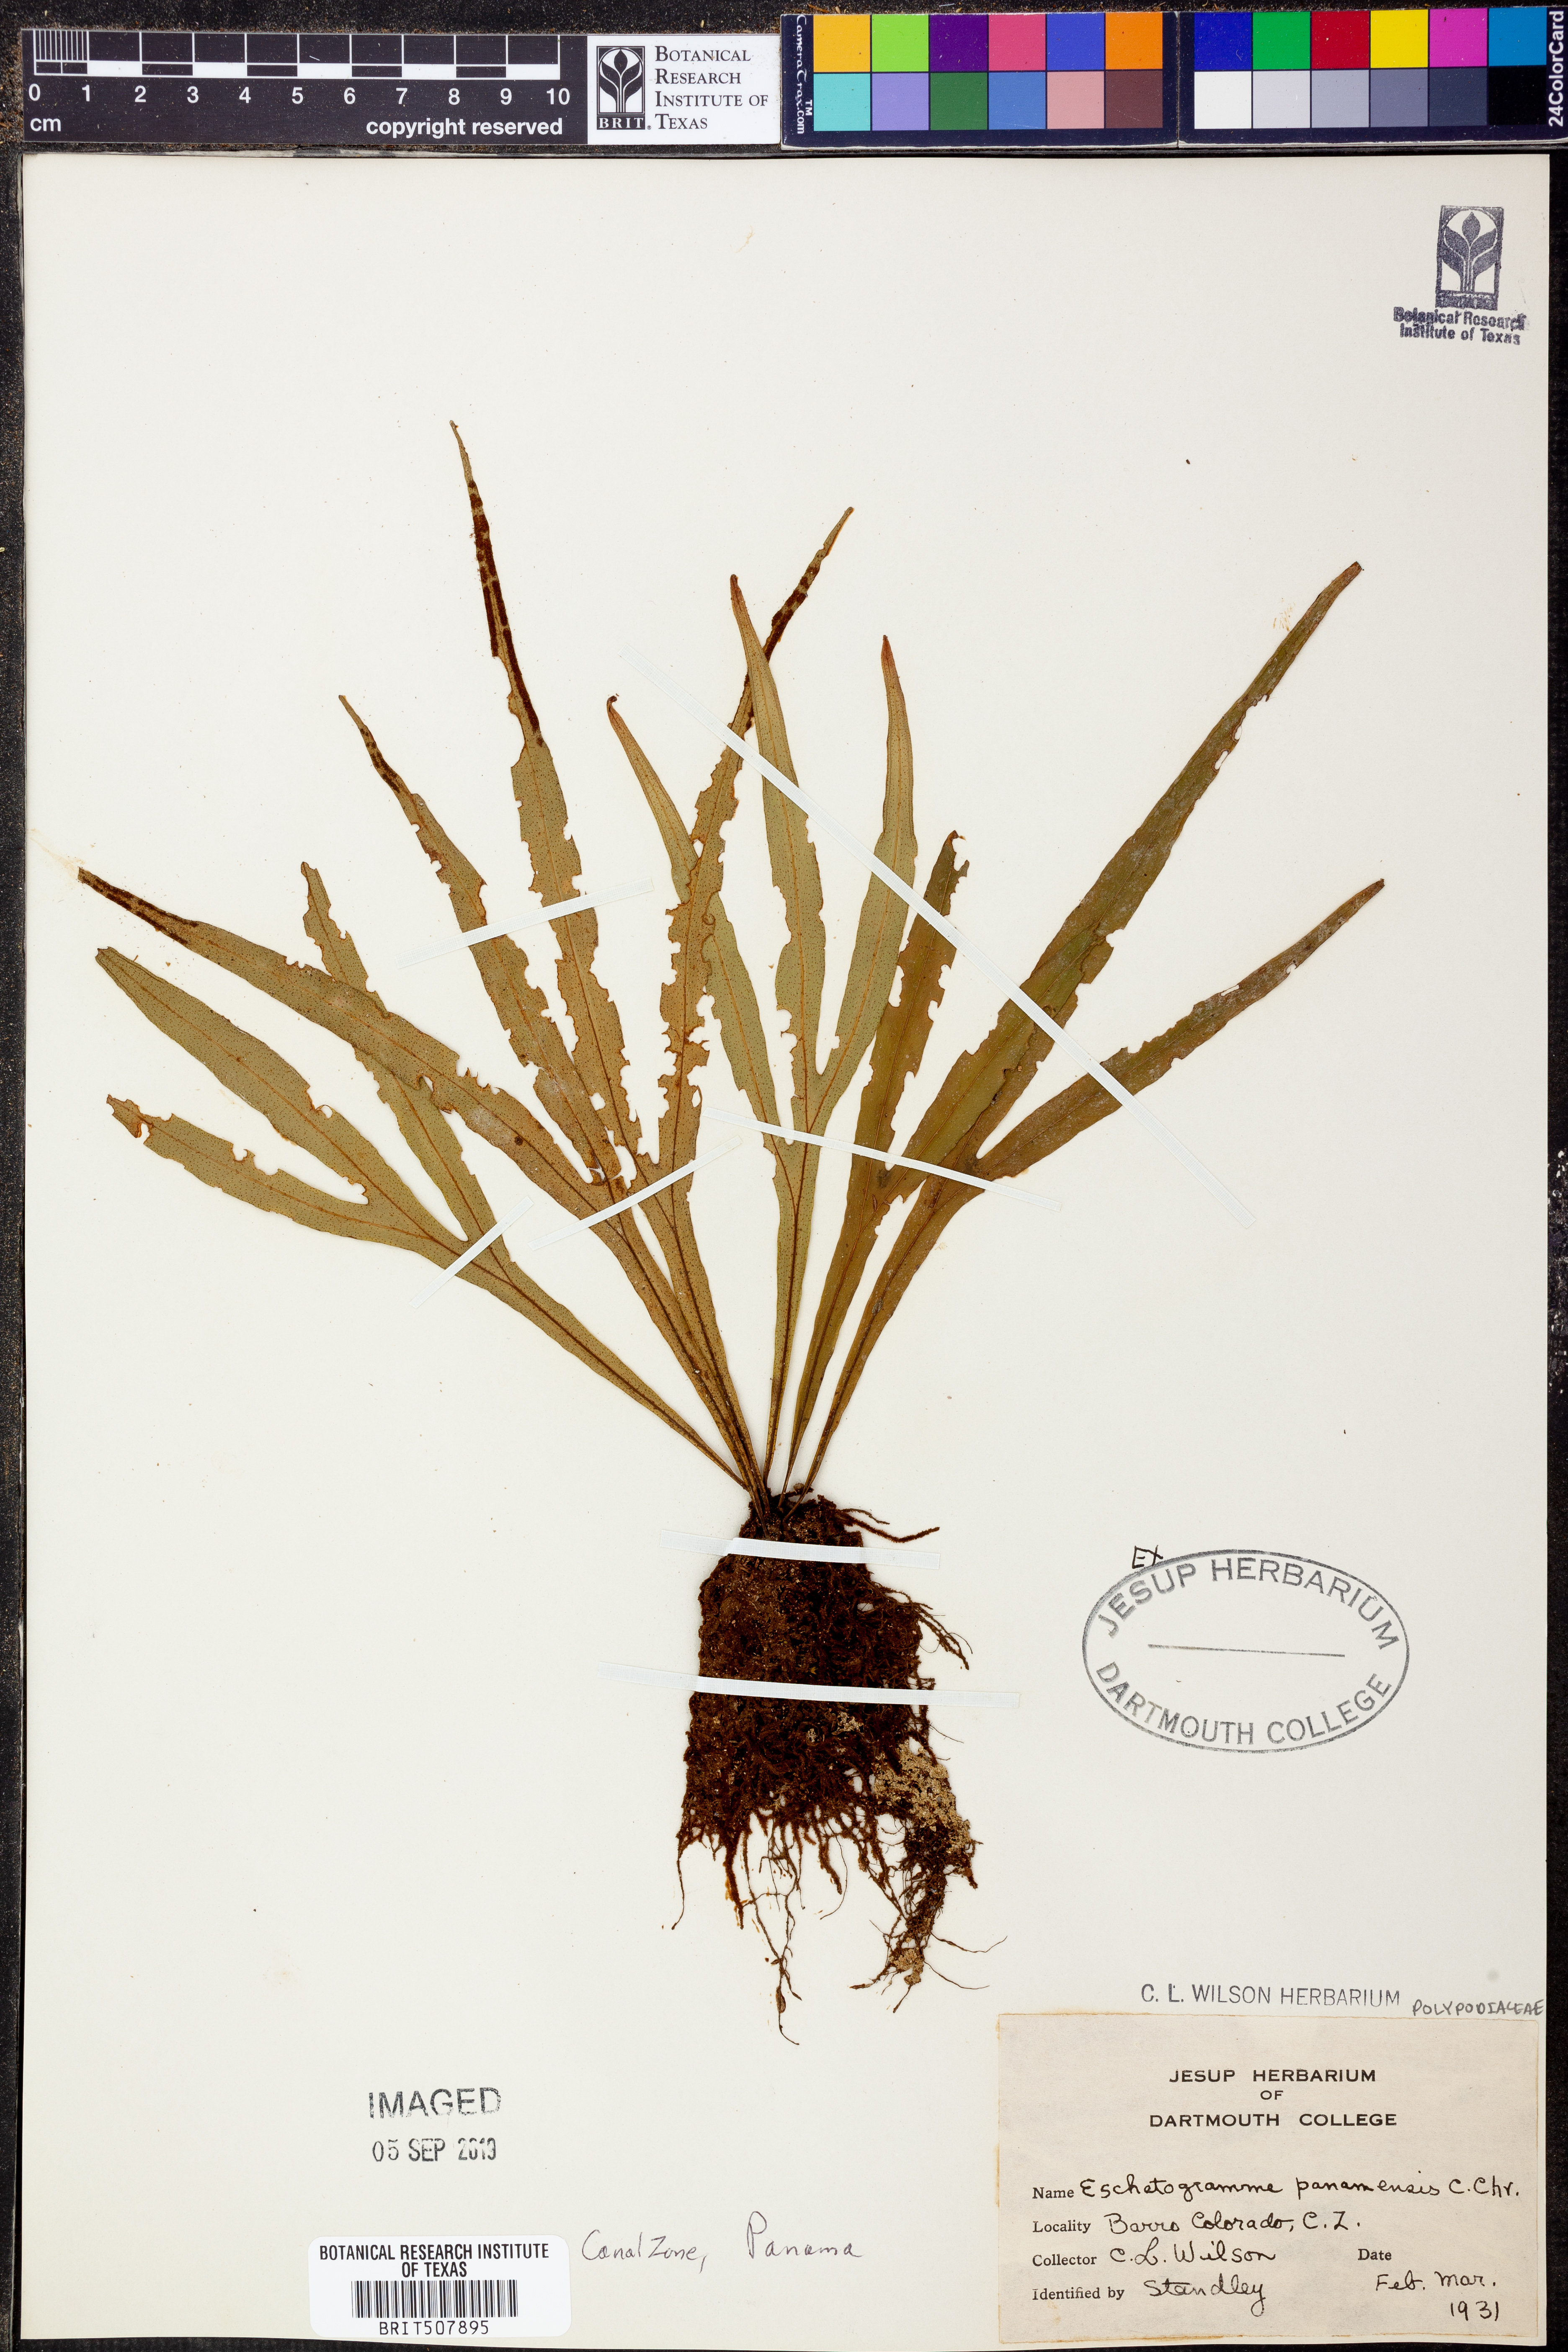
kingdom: Plantae
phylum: Tracheophyta
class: Polypodiopsida
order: Polypodiales
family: Polypodiaceae
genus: Pleopeltis
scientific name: Pleopeltis christensenii
